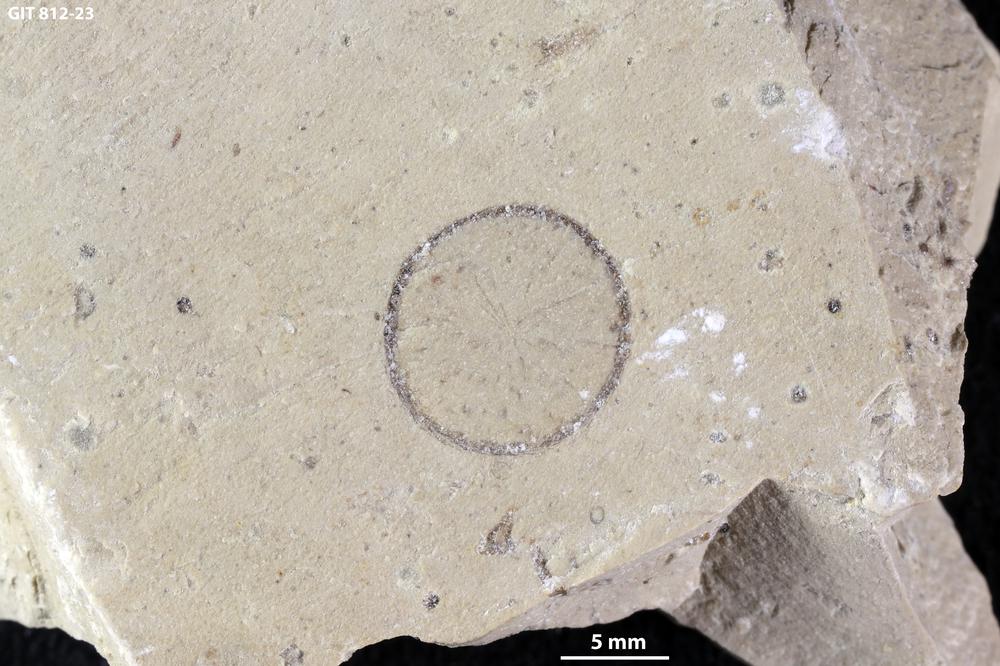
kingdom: Plantae
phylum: Chlorophyta
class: Chlorophyceae
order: Receptaculitales
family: Receptaculitaceae
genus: Tettragonis
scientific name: Tettragonis
